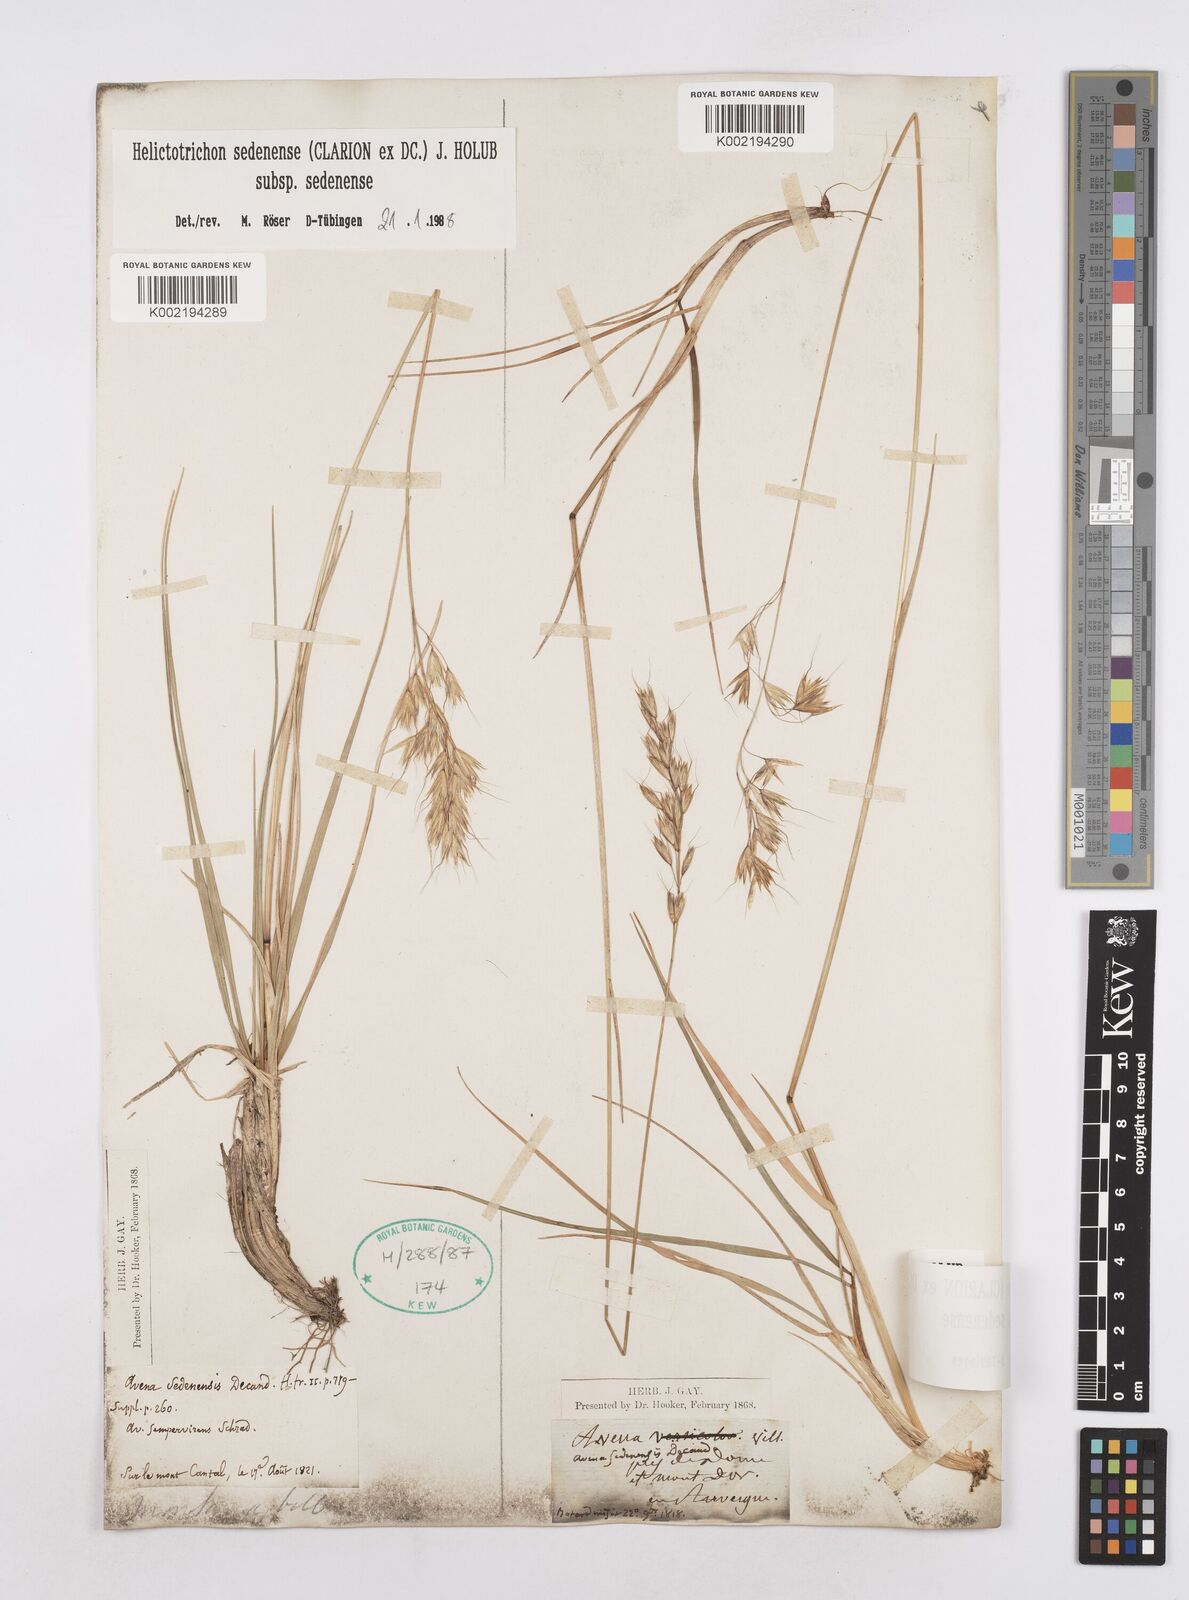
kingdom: Plantae
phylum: Tracheophyta
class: Liliopsida
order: Poales
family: Poaceae
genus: Helictotrichon
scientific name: Helictotrichon sedenense
